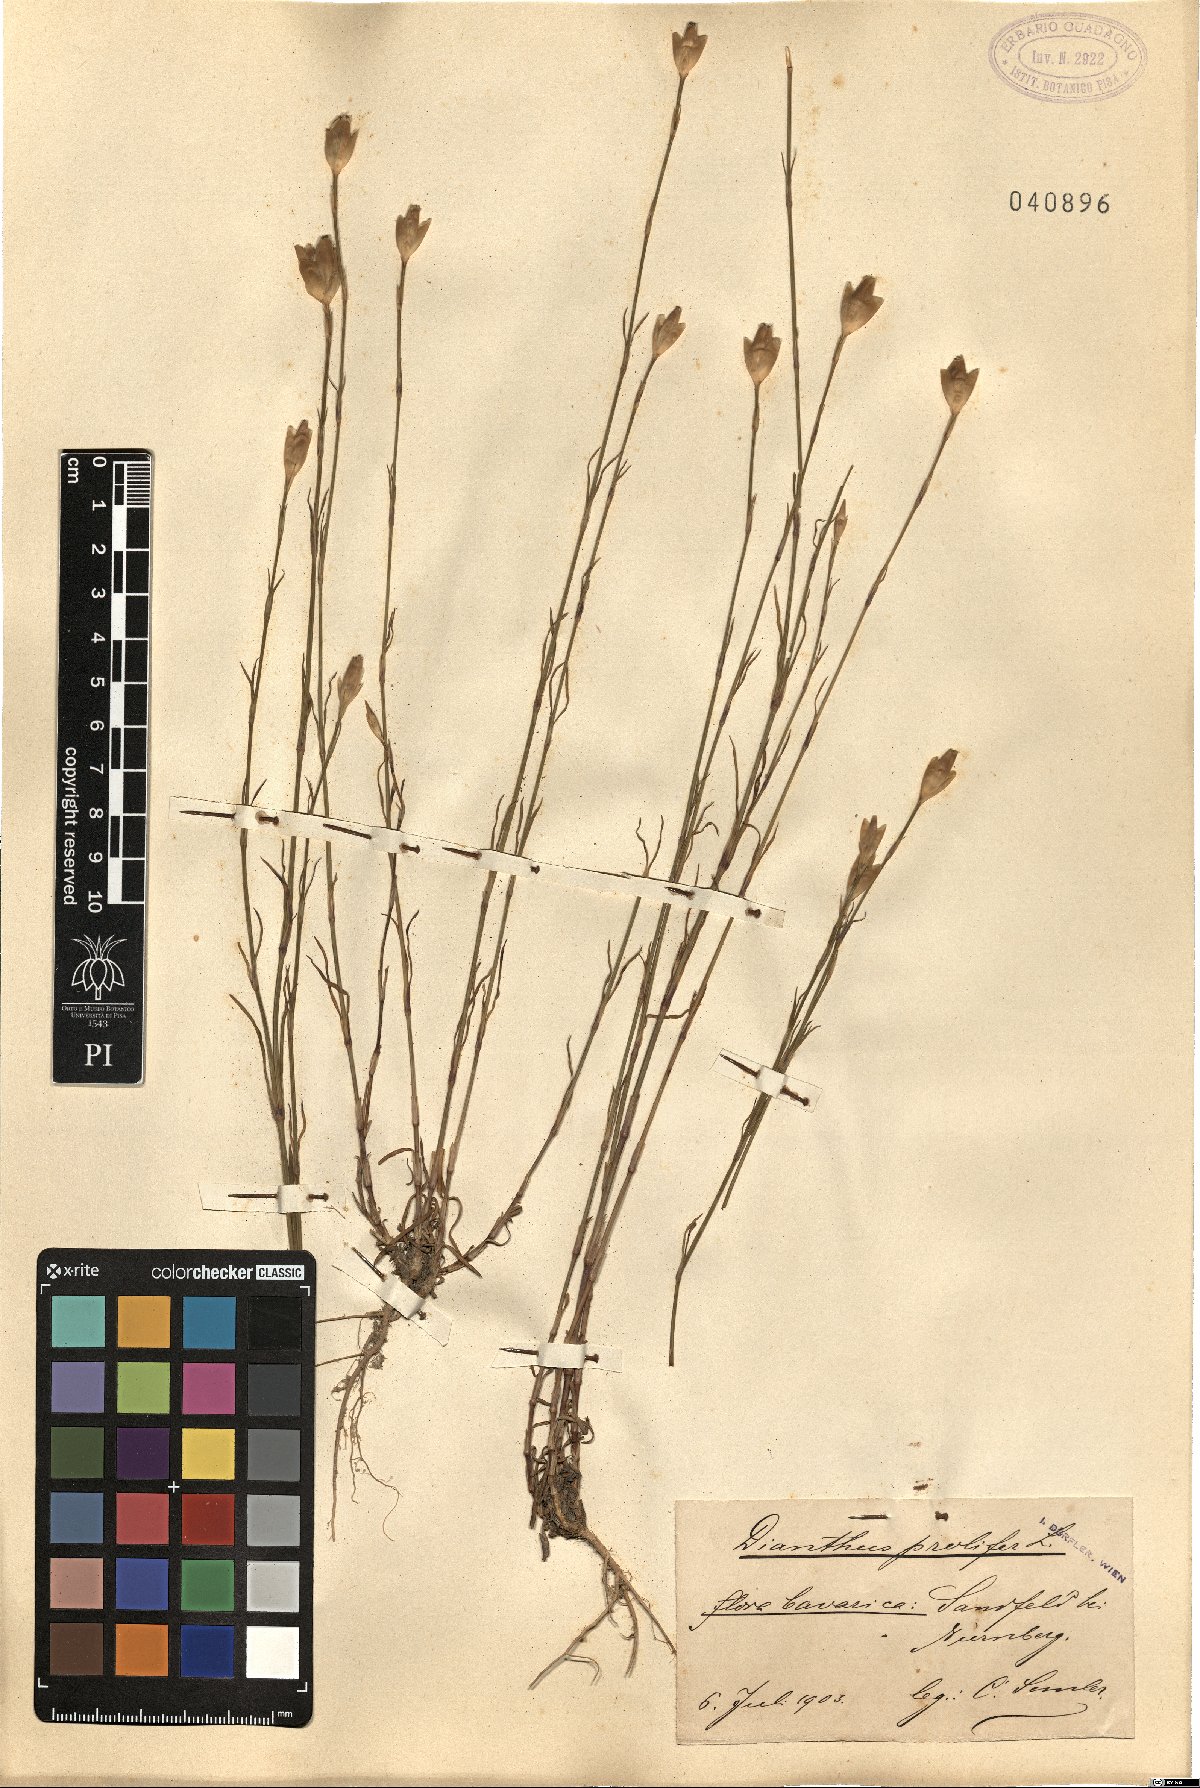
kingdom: Plantae
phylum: Tracheophyta
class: Magnoliopsida
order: Caryophyllales
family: Caryophyllaceae
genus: Petrorhagia
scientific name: Petrorhagia prolifera
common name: Proliferous pink
